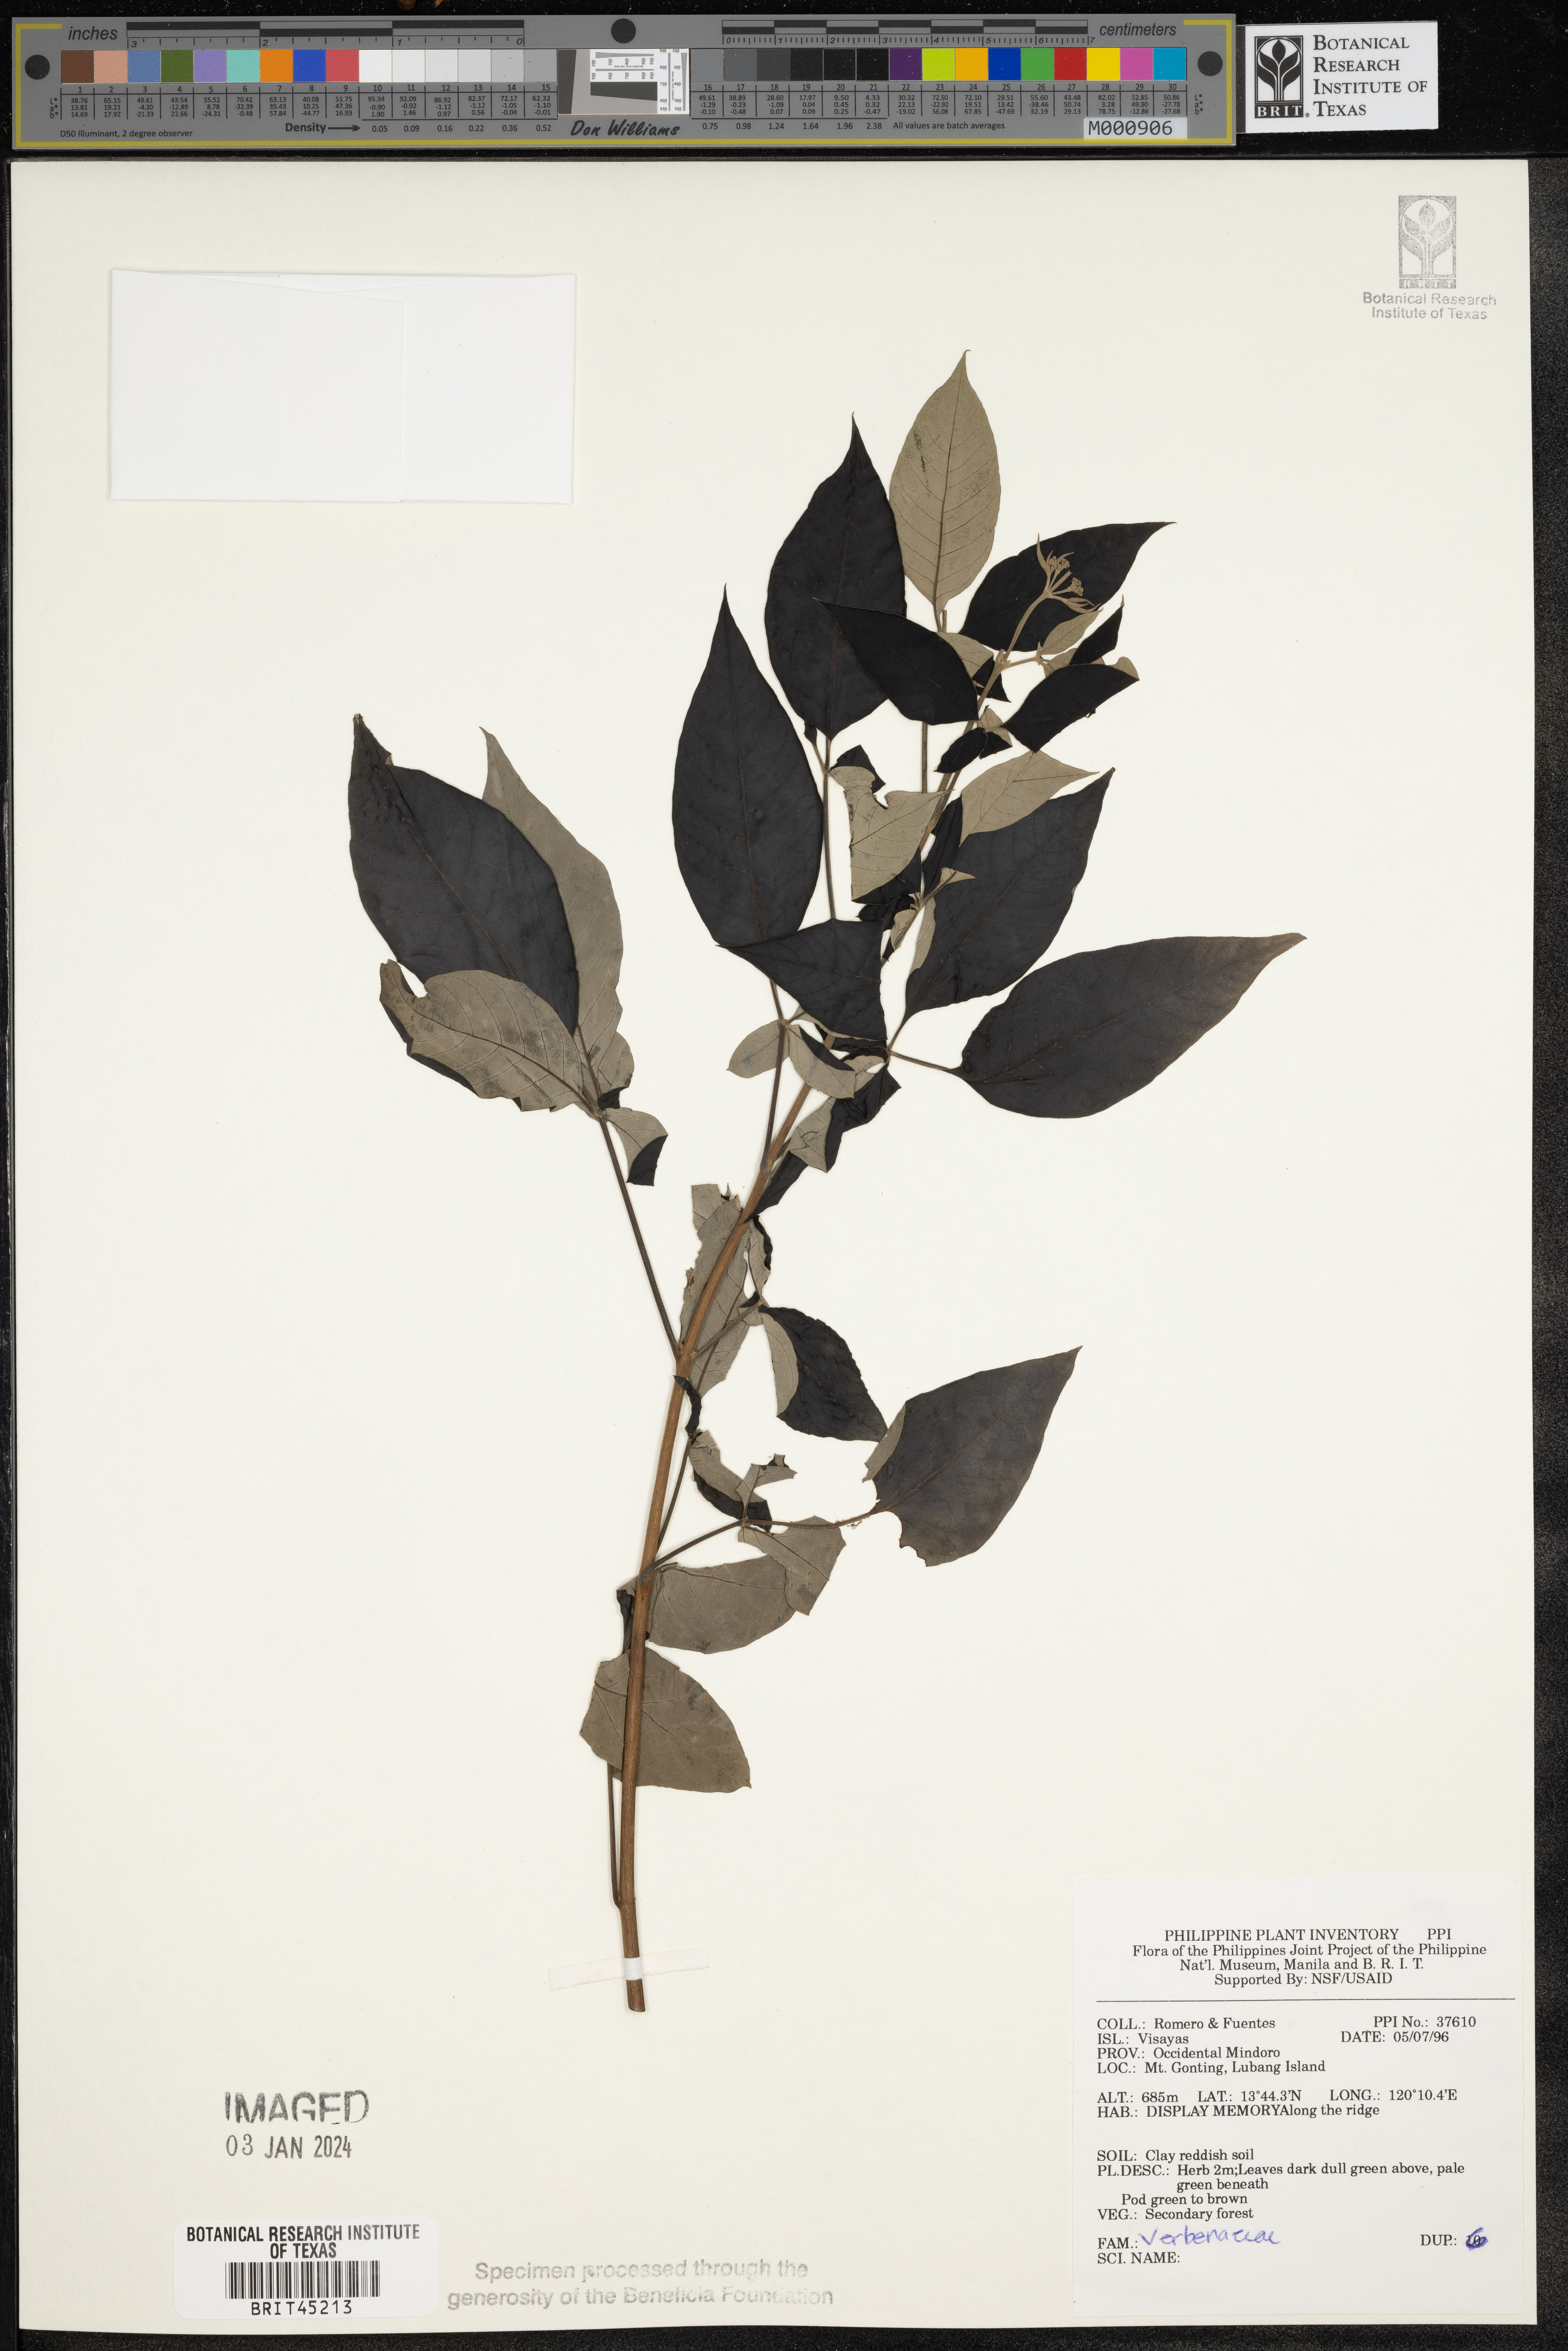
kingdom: Plantae
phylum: Tracheophyta
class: Magnoliopsida
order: Lamiales
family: Verbenaceae
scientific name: Verbenaceae
